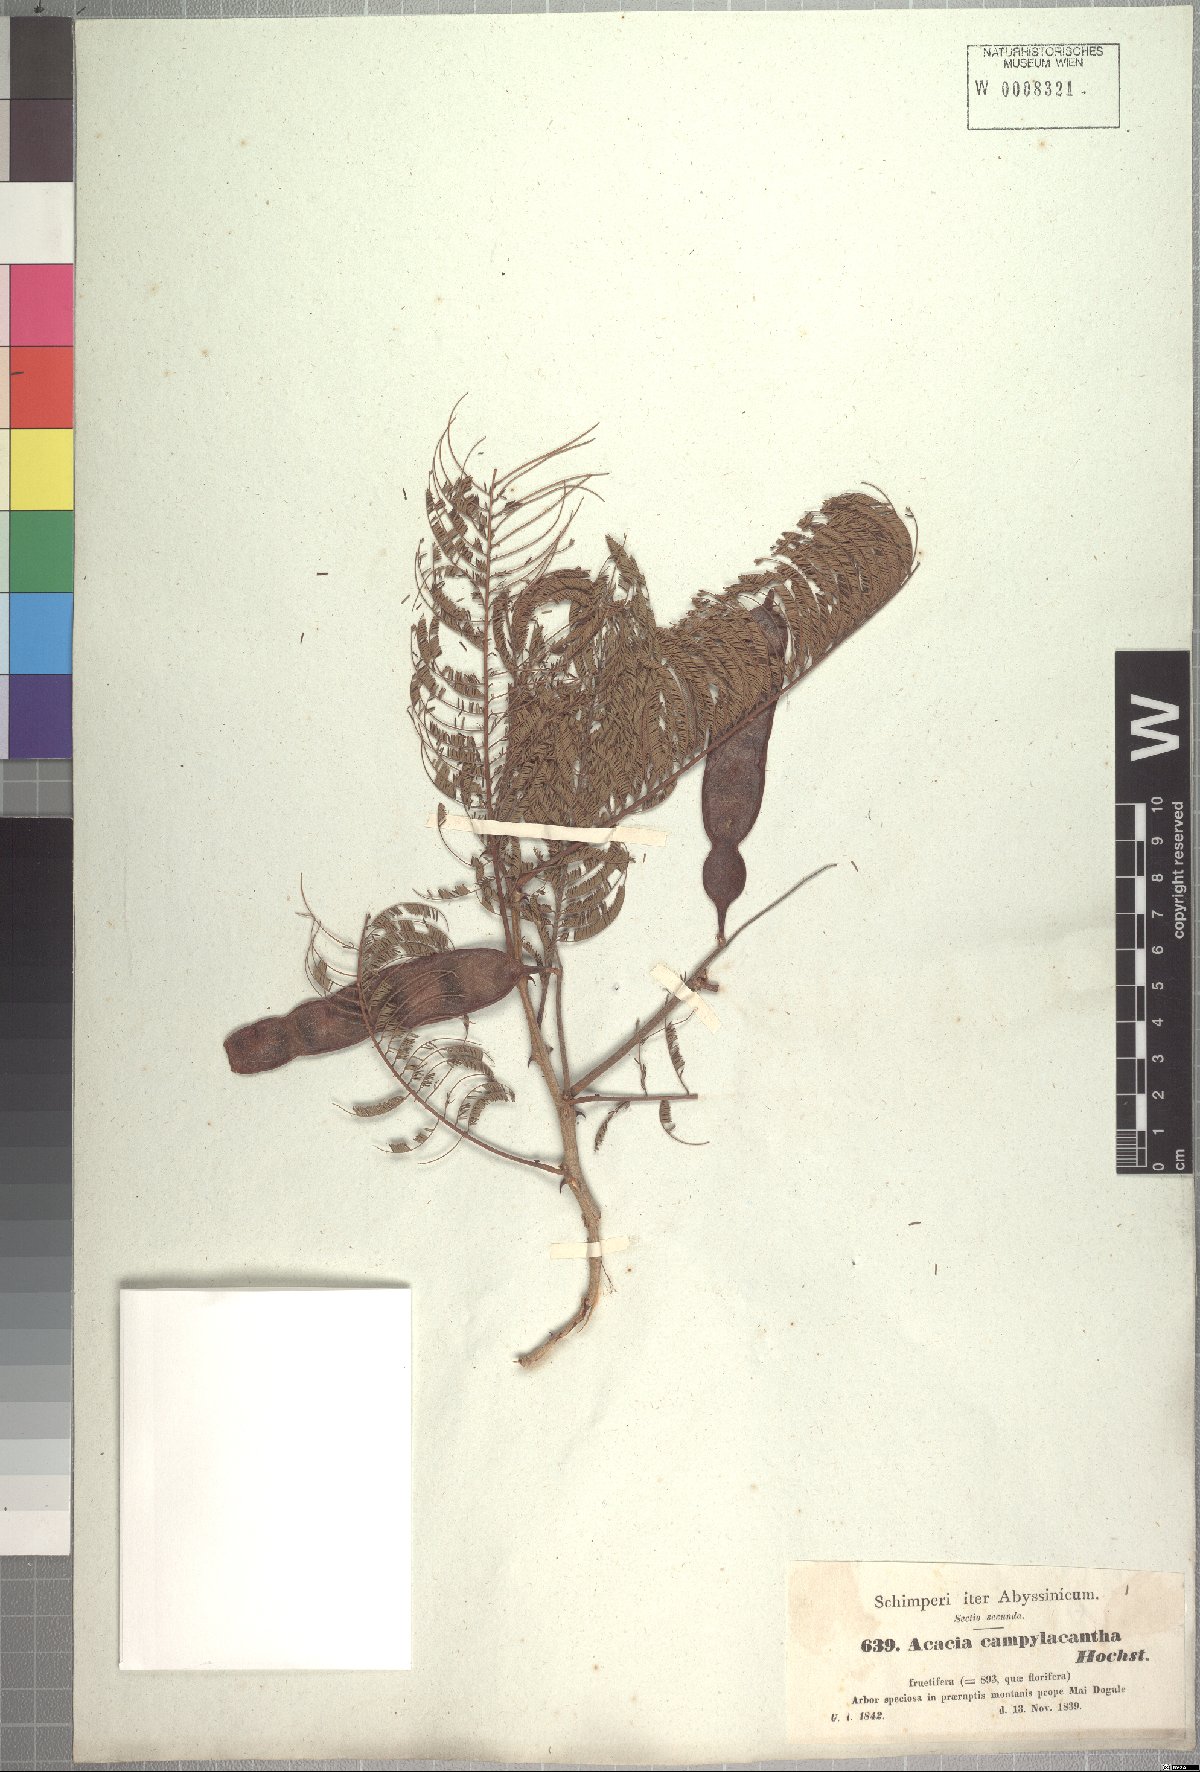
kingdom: Plantae
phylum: Tracheophyta
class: Magnoliopsida
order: Fabales
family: Fabaceae
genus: Senegalia
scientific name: Senegalia polyacantha
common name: Whitethorn
